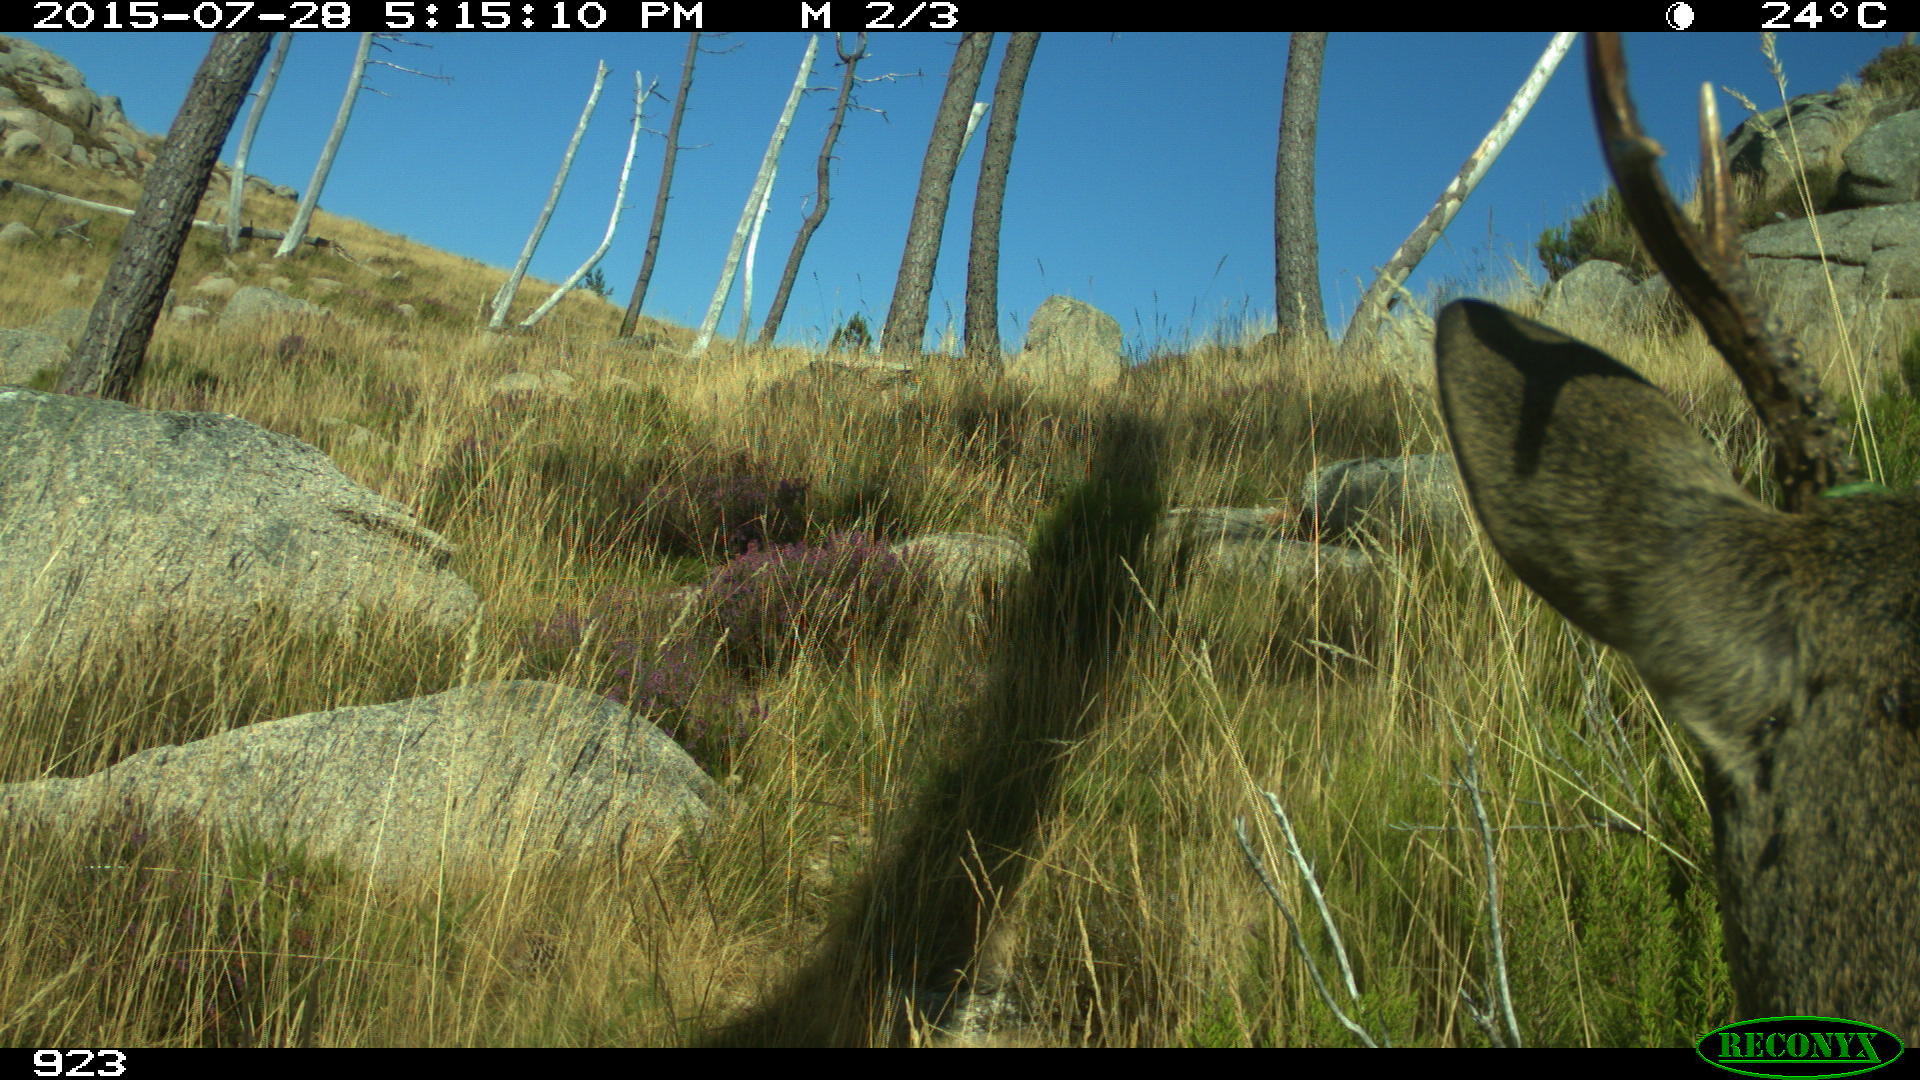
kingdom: Animalia
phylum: Chordata
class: Mammalia
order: Artiodactyla
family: Cervidae
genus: Capreolus
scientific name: Capreolus capreolus
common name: Western roe deer
